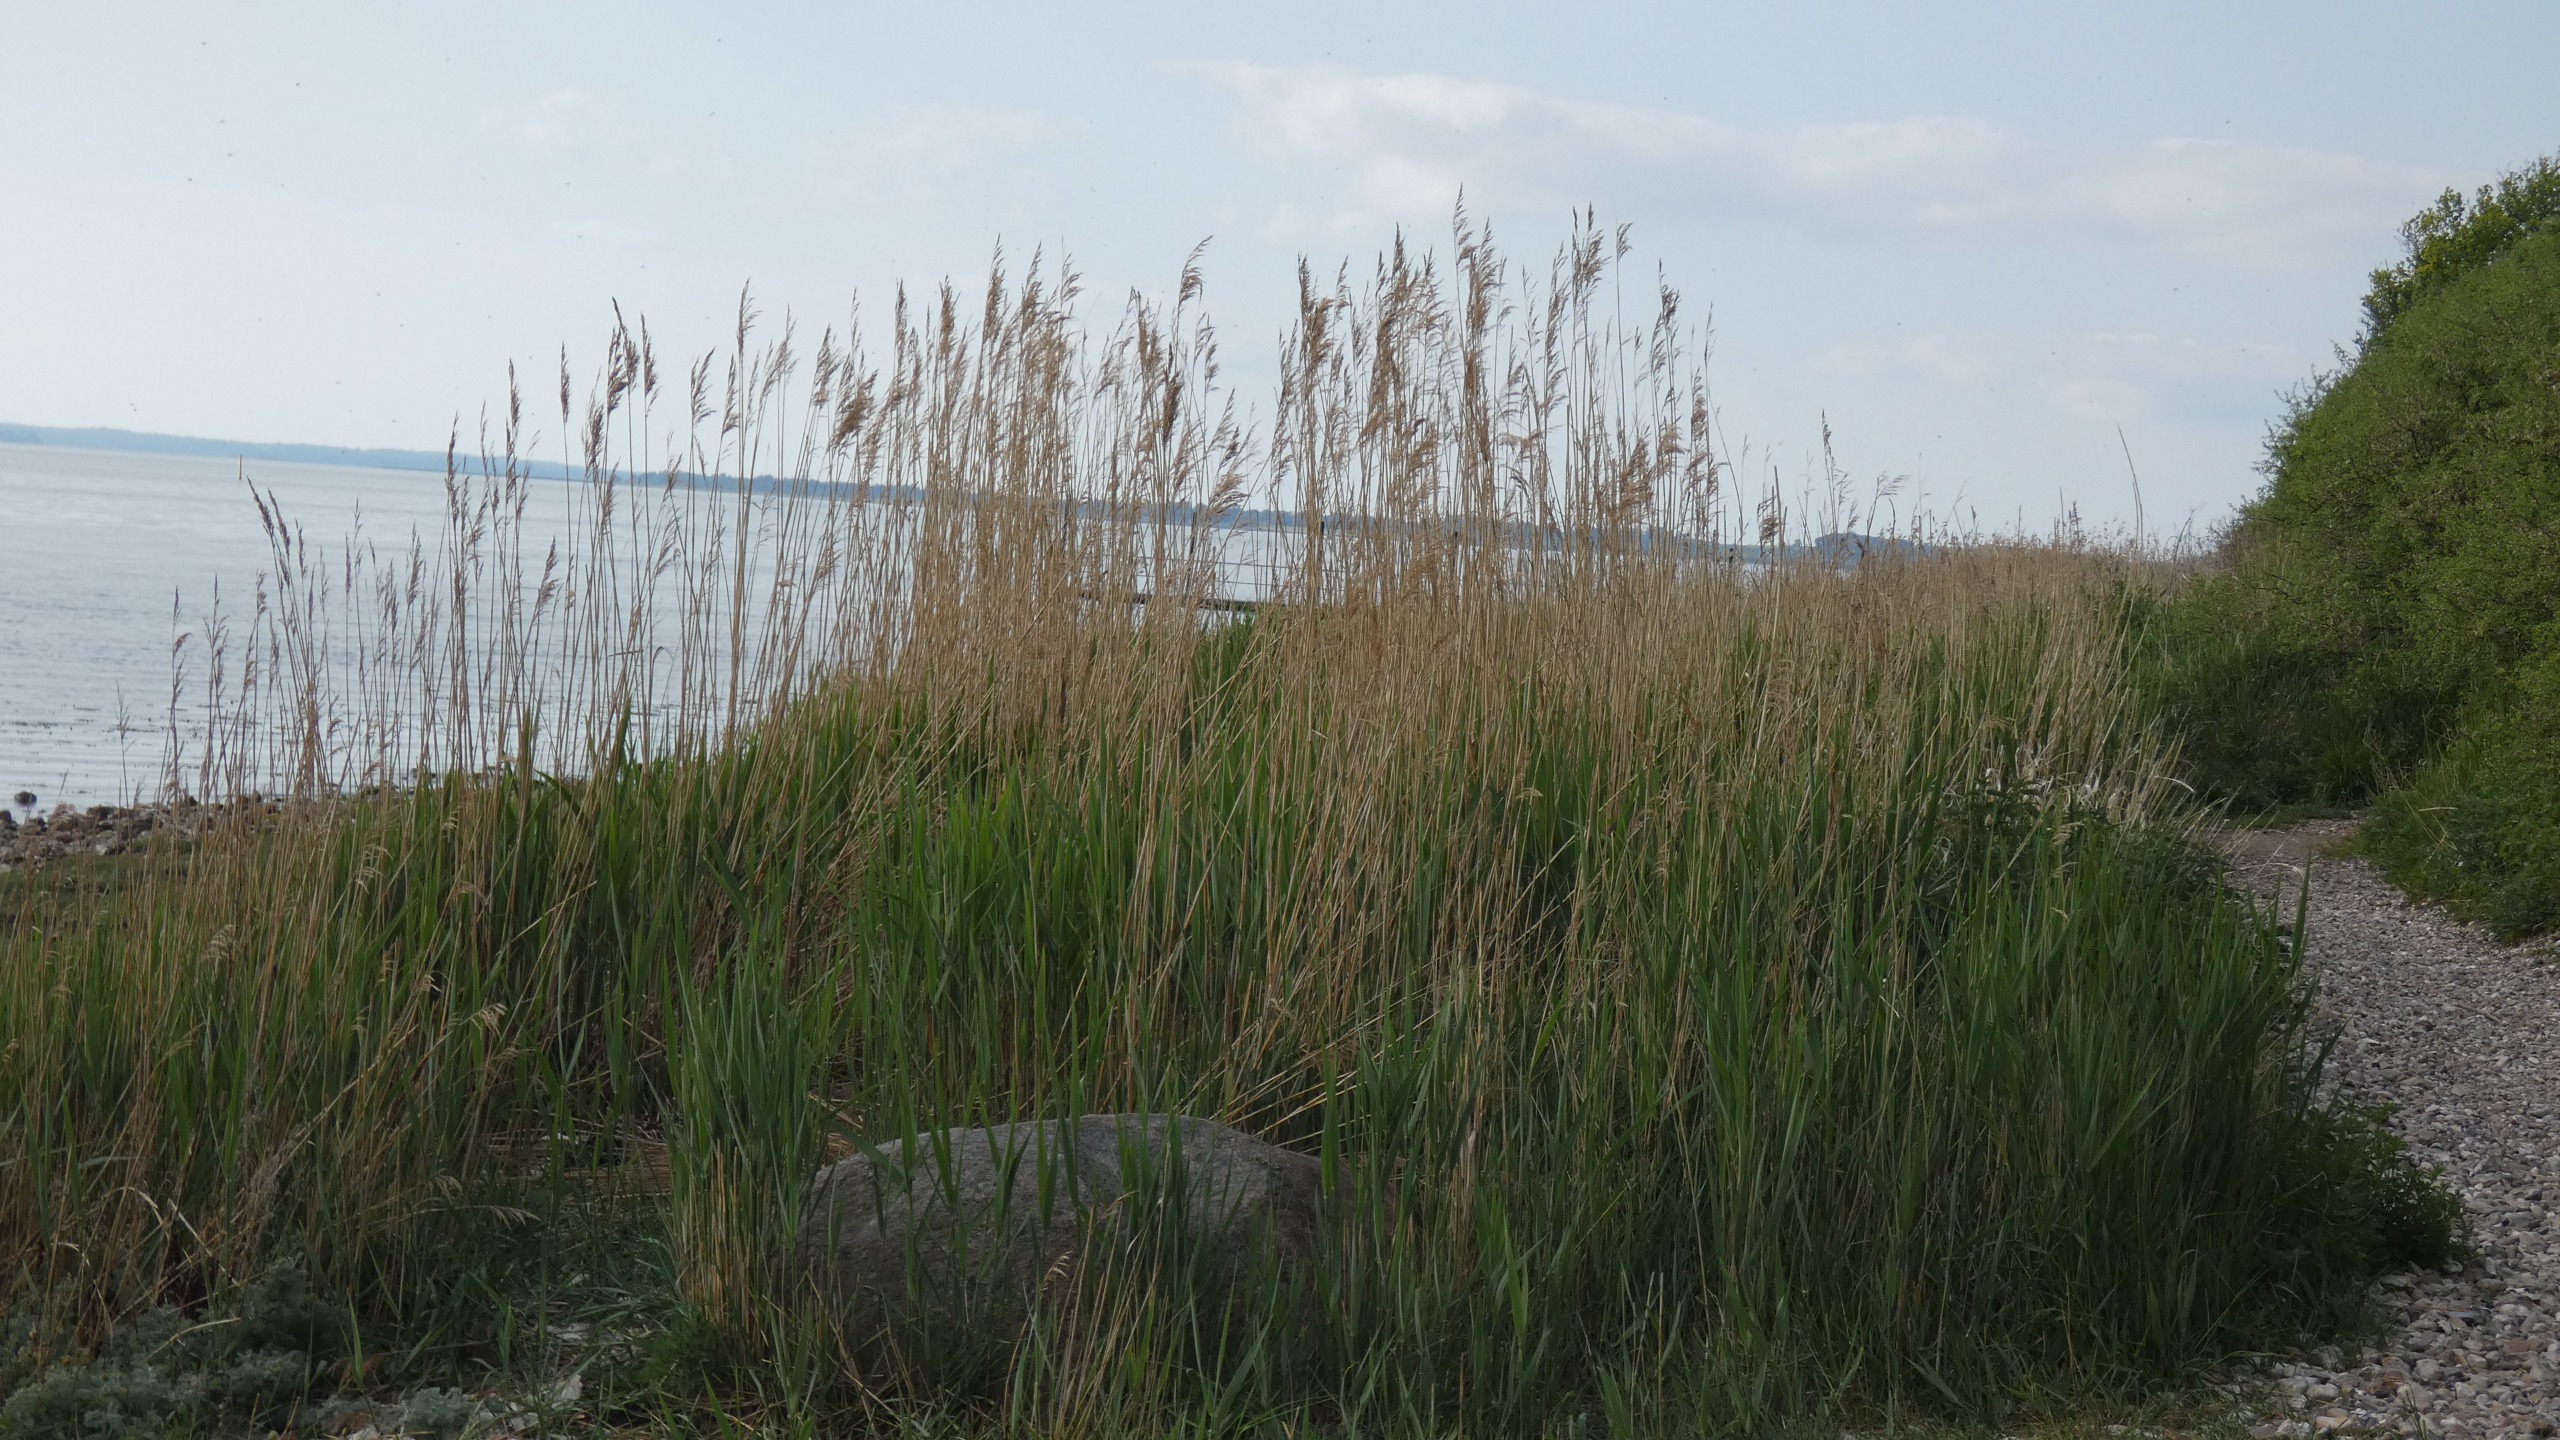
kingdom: Plantae
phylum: Tracheophyta
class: Liliopsida
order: Poales
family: Poaceae
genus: Phragmites
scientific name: Phragmites australis
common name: Tagrør
